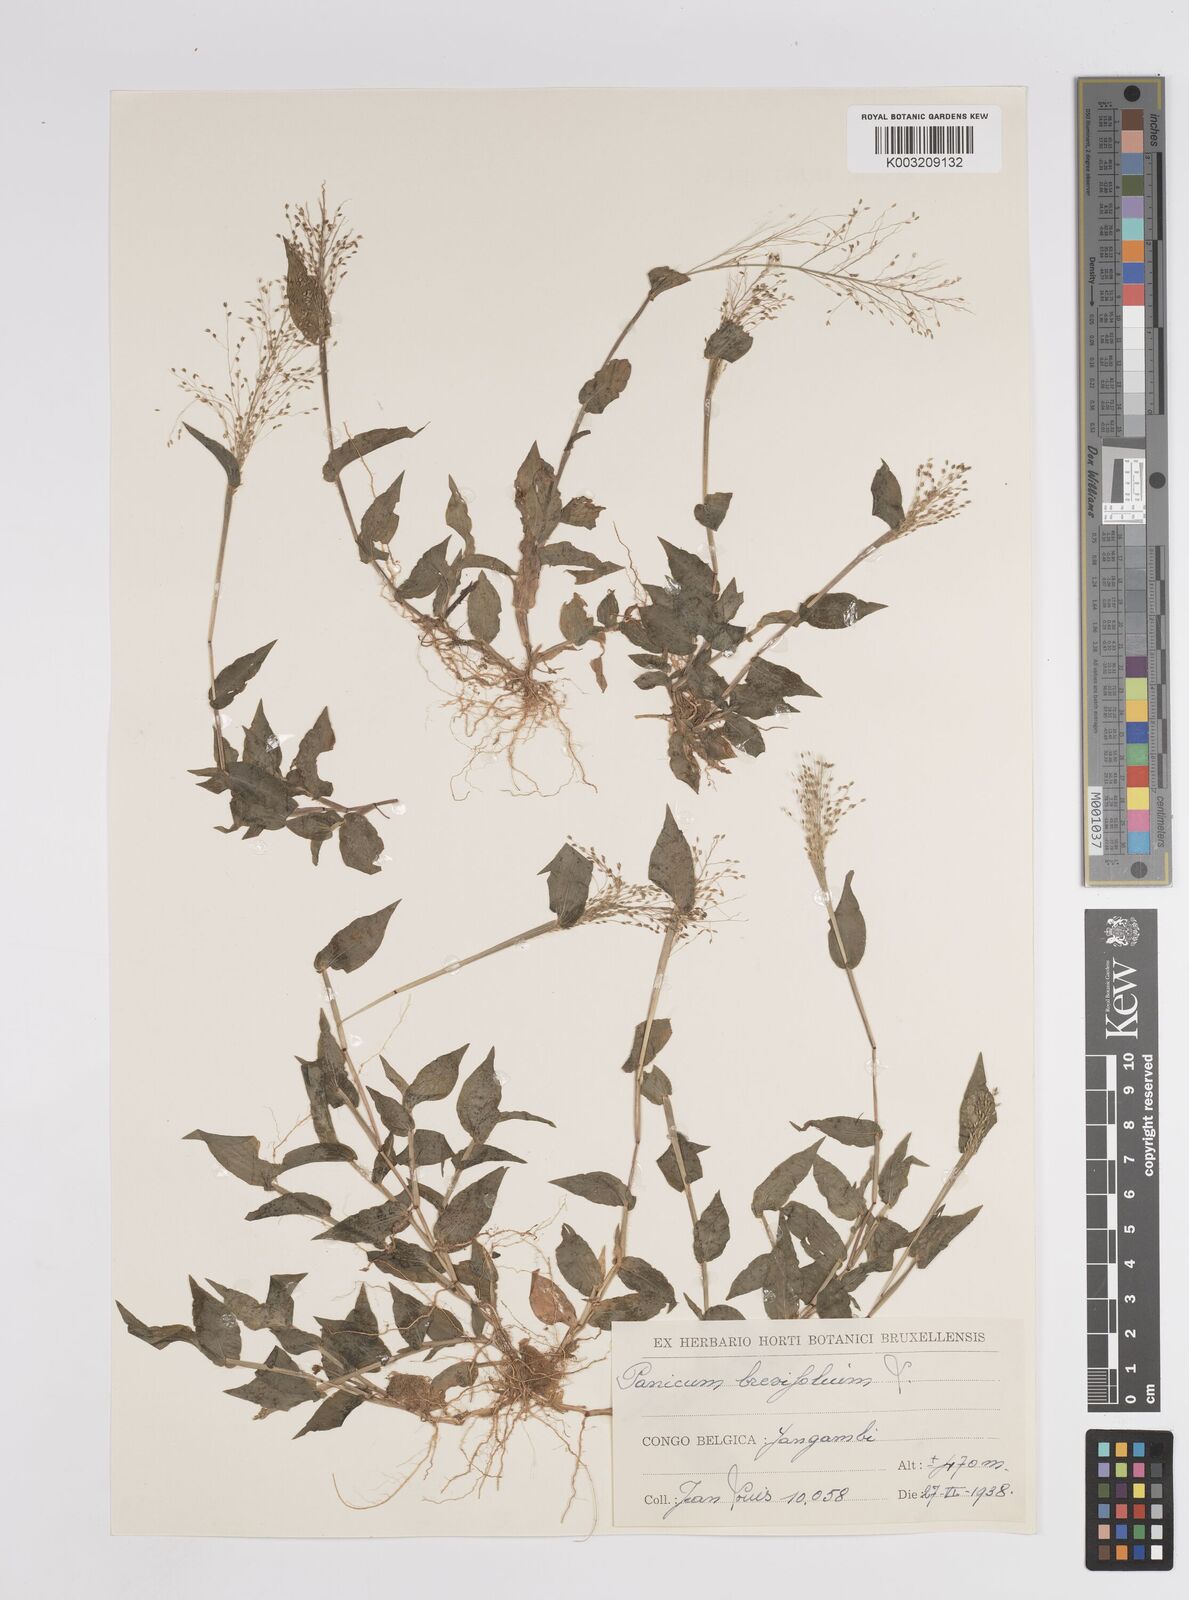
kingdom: Plantae
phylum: Tracheophyta
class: Liliopsida
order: Poales
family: Poaceae
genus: Panicum
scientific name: Panicum brevifolium
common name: Shortleaf panic grass
